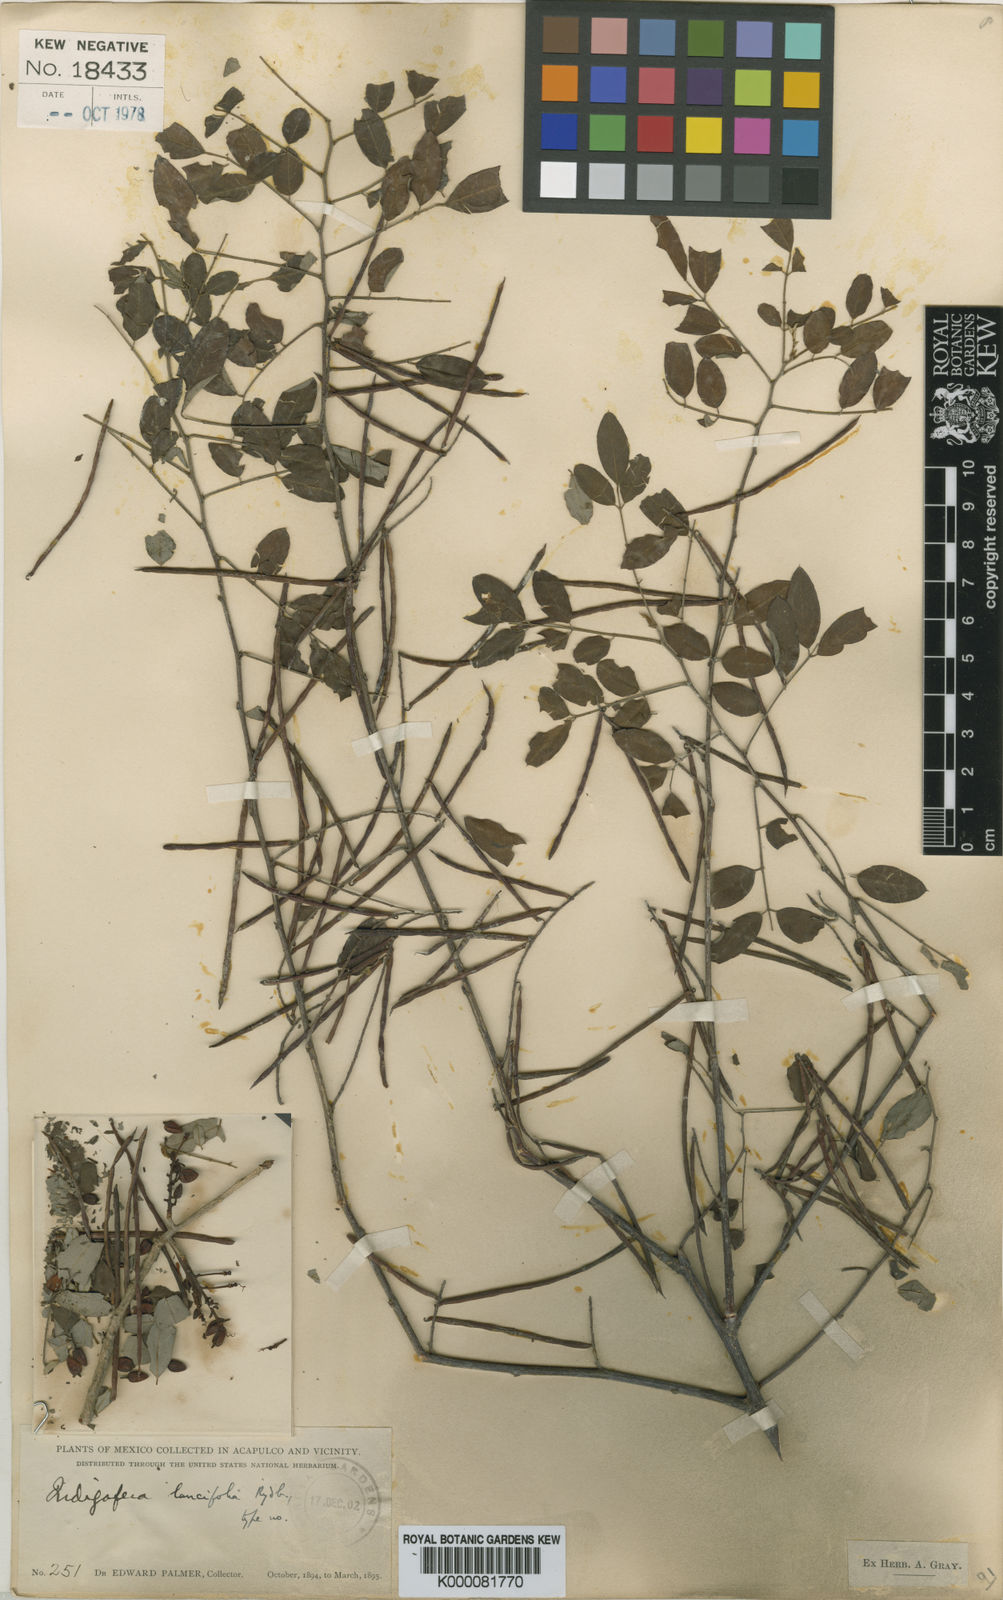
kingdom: Plantae
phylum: Tracheophyta
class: Magnoliopsida
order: Fabales
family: Fabaceae
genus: Indigofera
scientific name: Indigofera lancifolia
